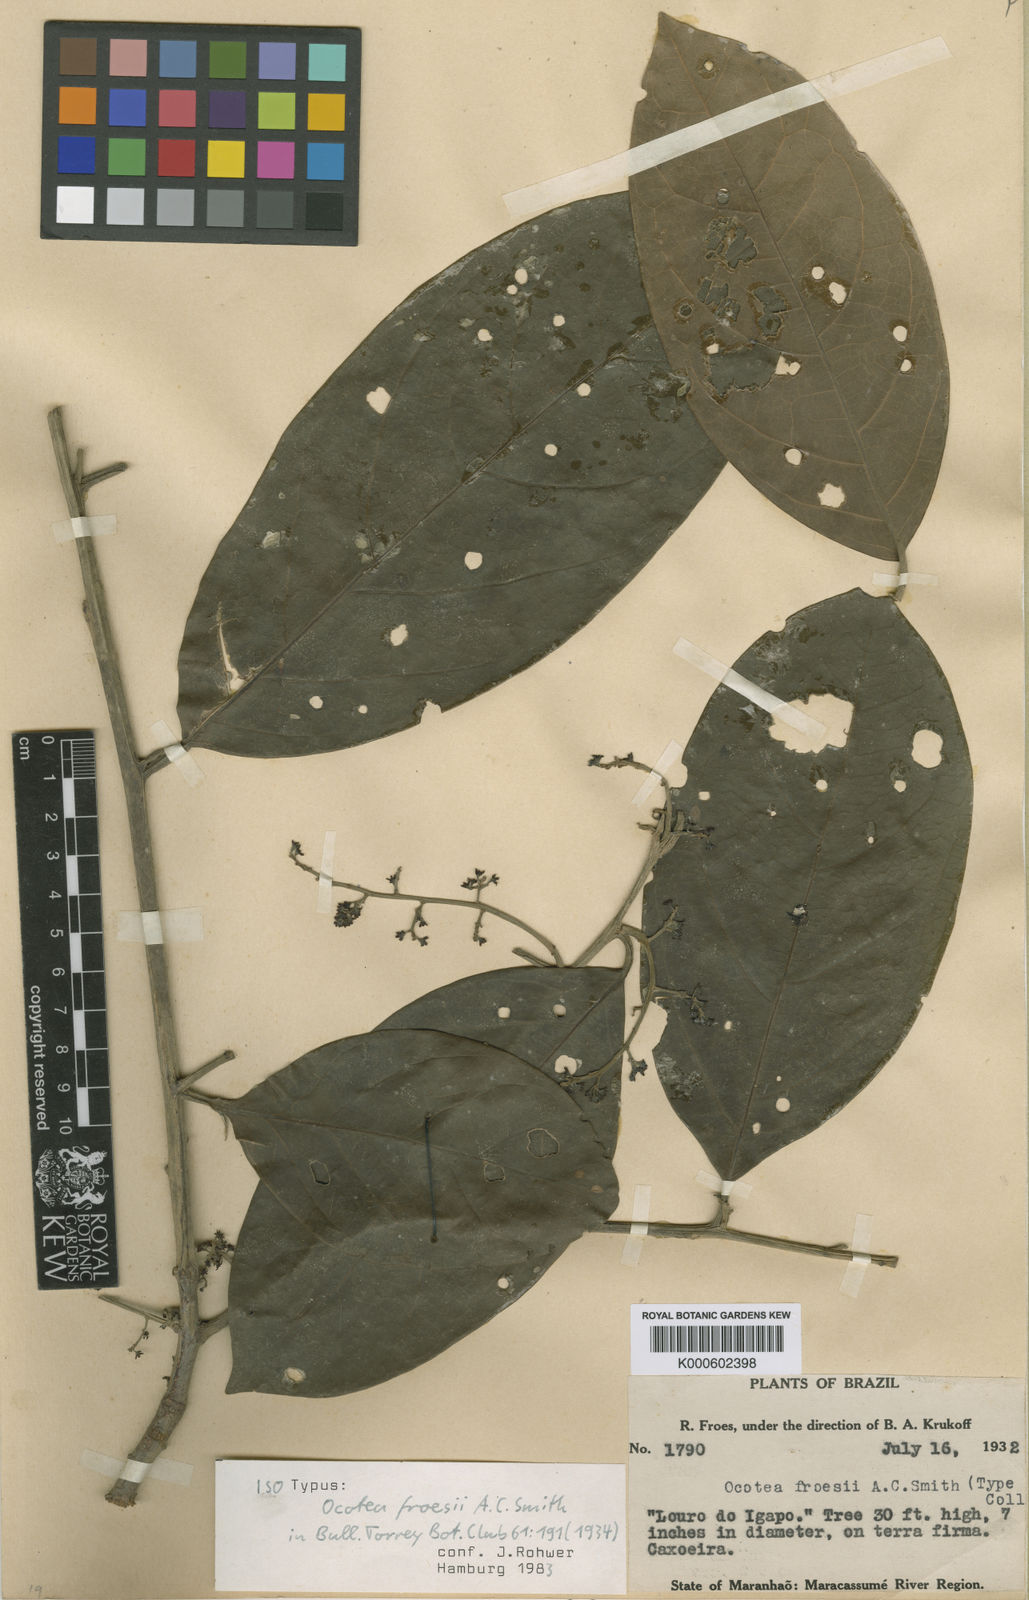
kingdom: Plantae
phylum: Tracheophyta
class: Magnoliopsida
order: Laurales
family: Lauraceae
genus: Ocotea
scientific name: Ocotea froesii
